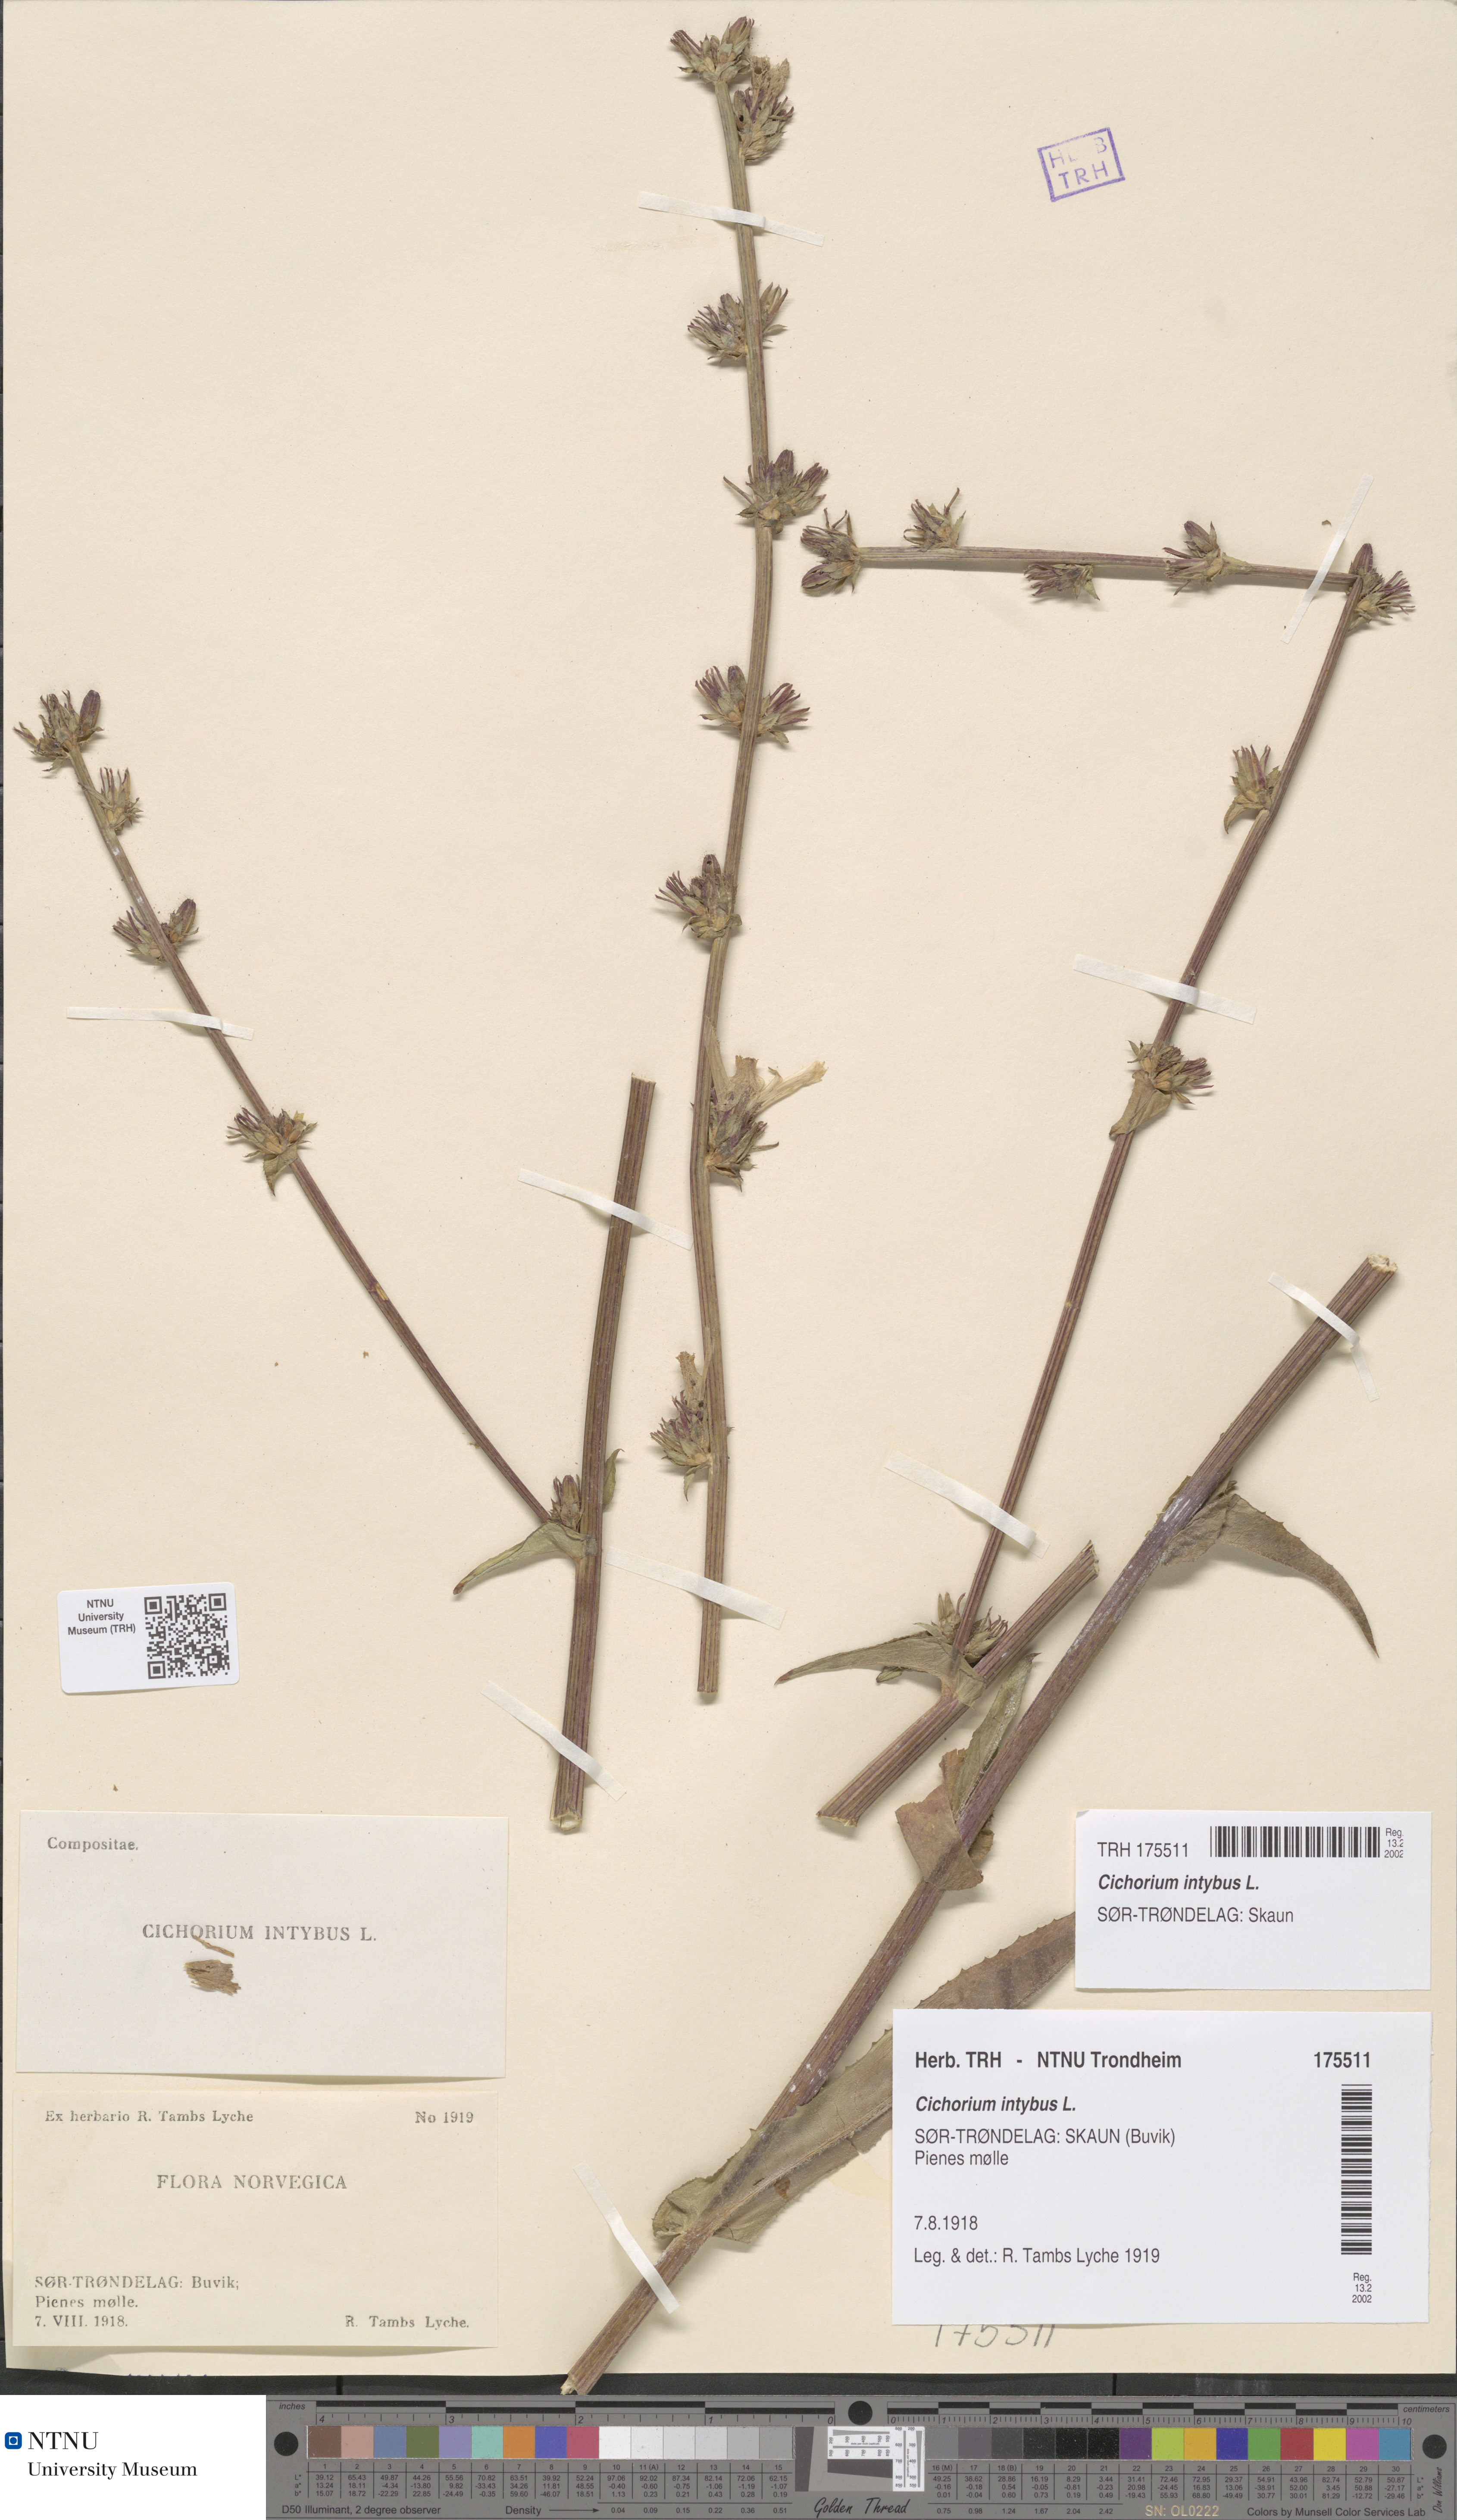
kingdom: Plantae
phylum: Tracheophyta
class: Magnoliopsida
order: Asterales
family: Asteraceae
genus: Cichorium
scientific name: Cichorium intybus
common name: Chicory
